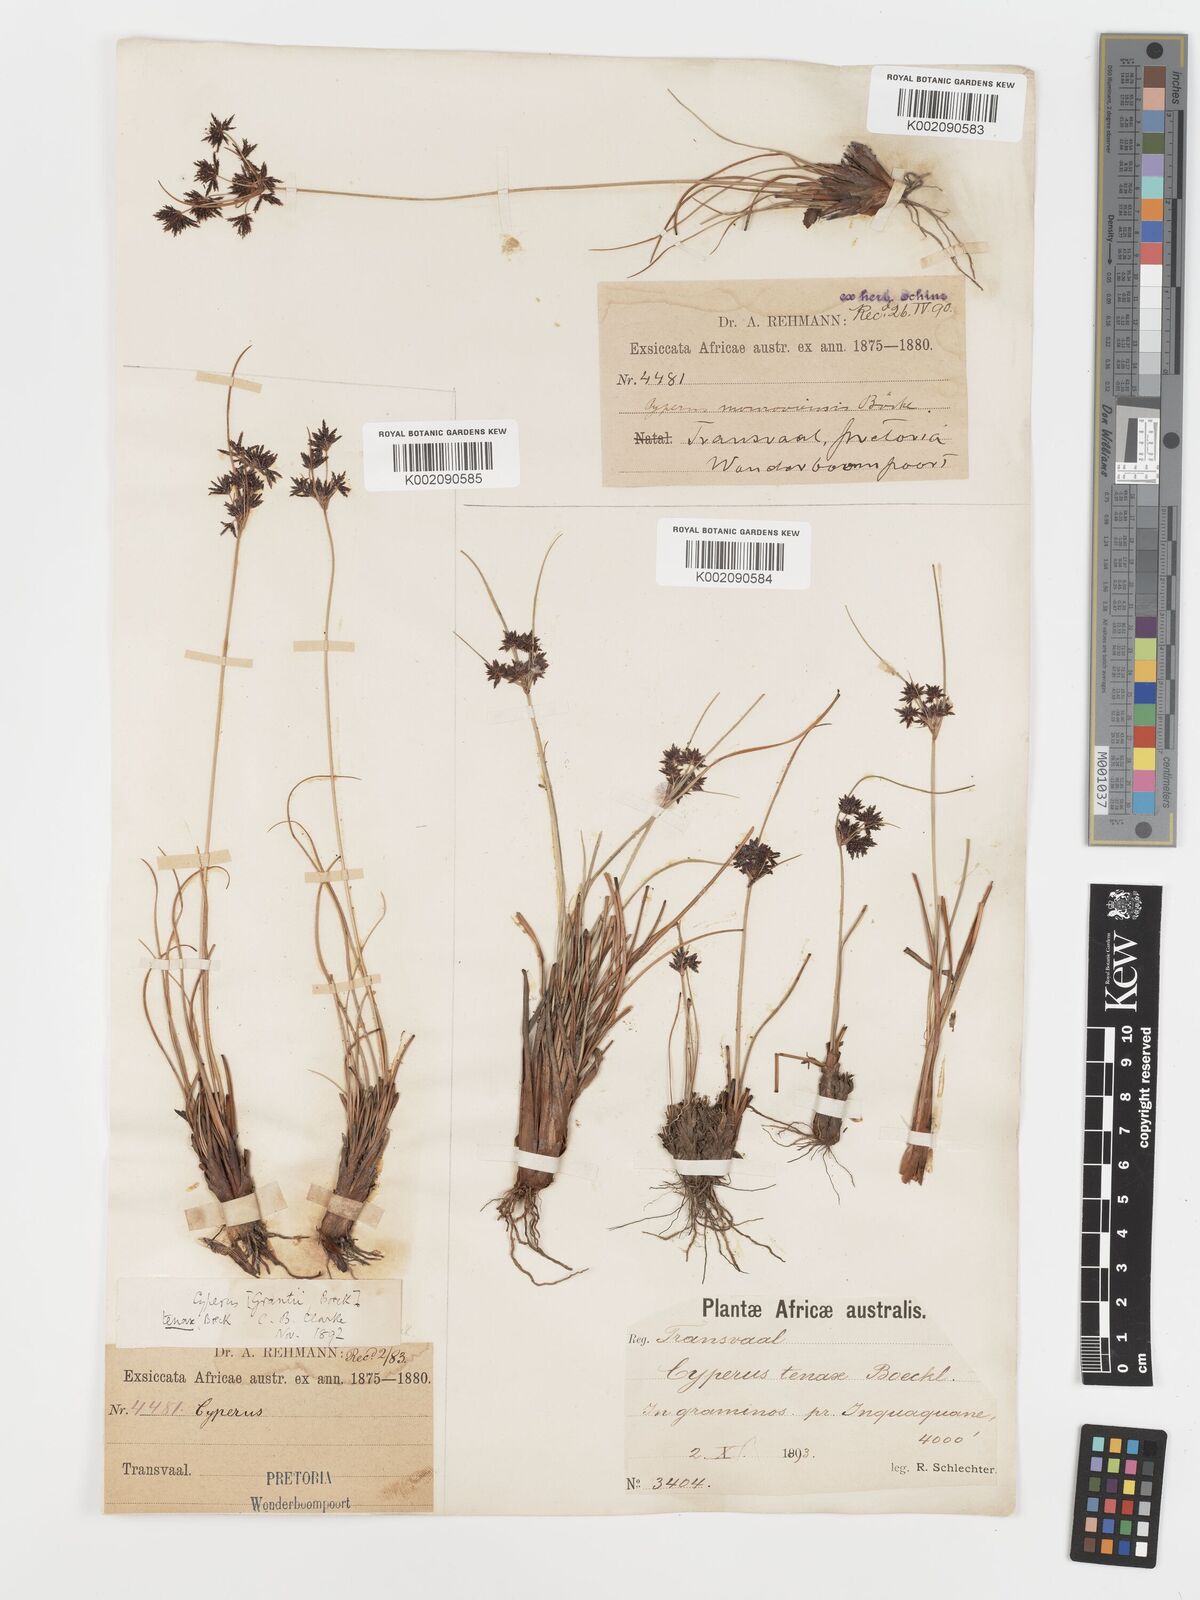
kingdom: Plantae
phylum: Tracheophyta
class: Liliopsida
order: Poales
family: Cyperaceae
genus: Cyperus
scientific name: Cyperus tenax
